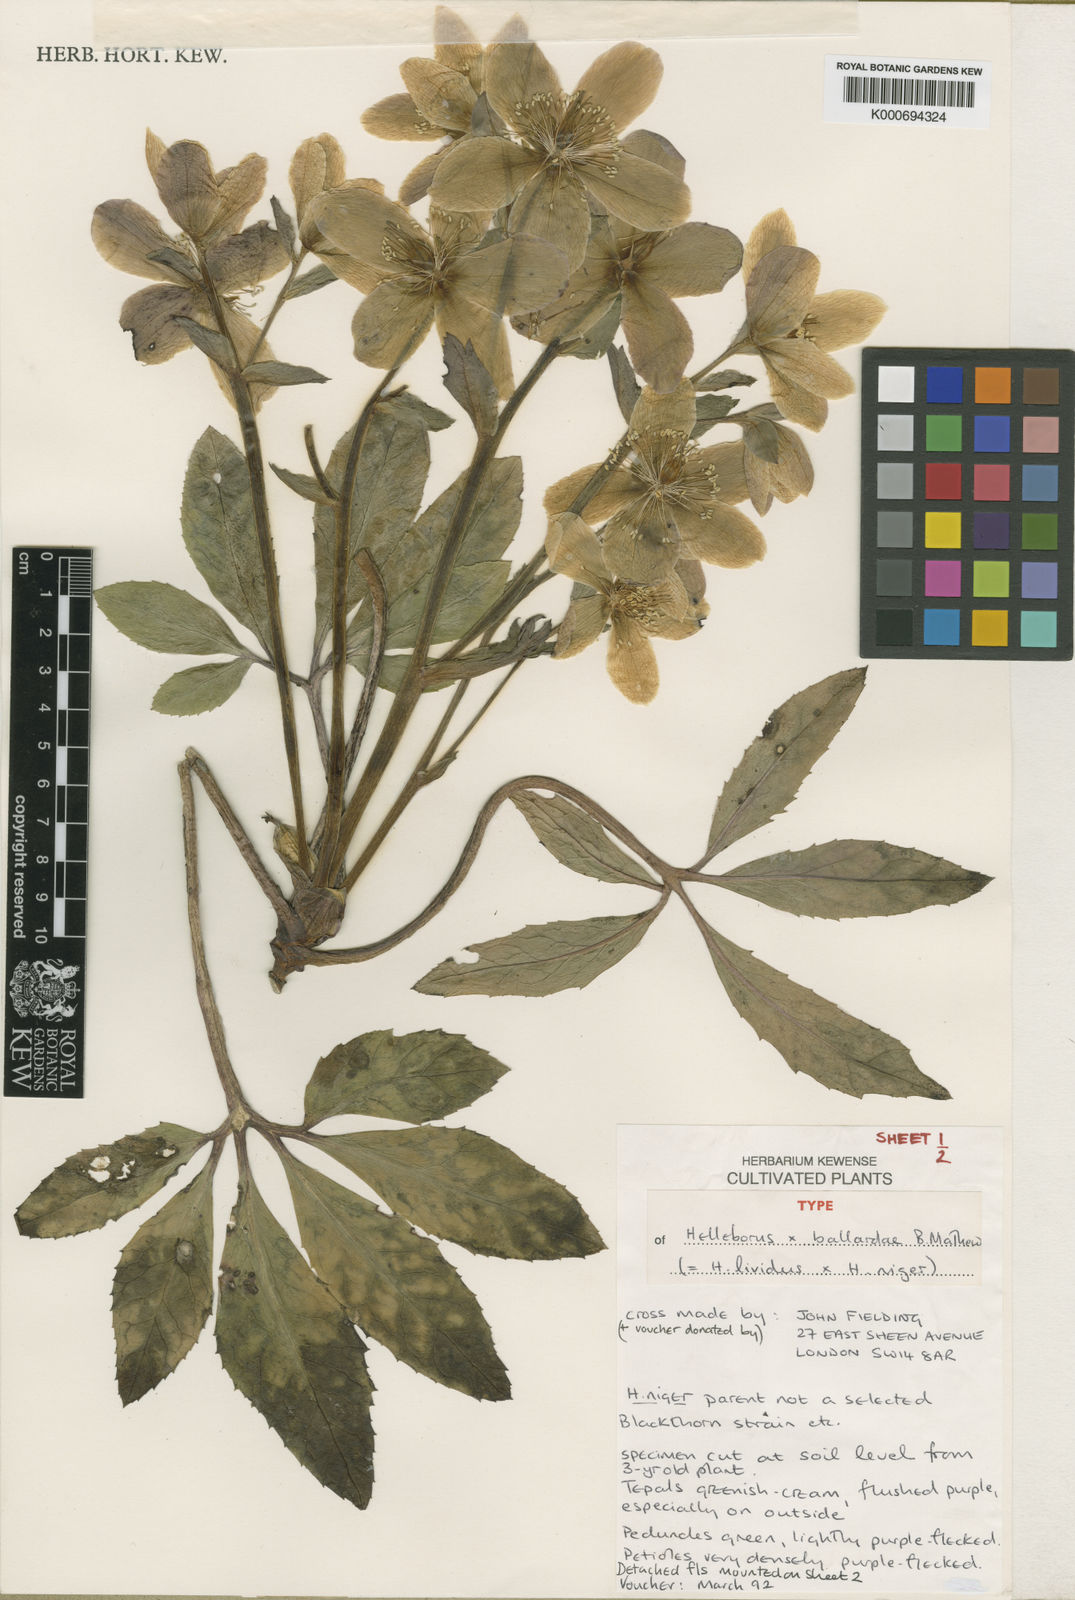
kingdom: Plantae
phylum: Tracheophyta
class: Magnoliopsida
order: Ranunculales
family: Ranunculaceae
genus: Helleborus
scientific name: Helleborus ballardiae
